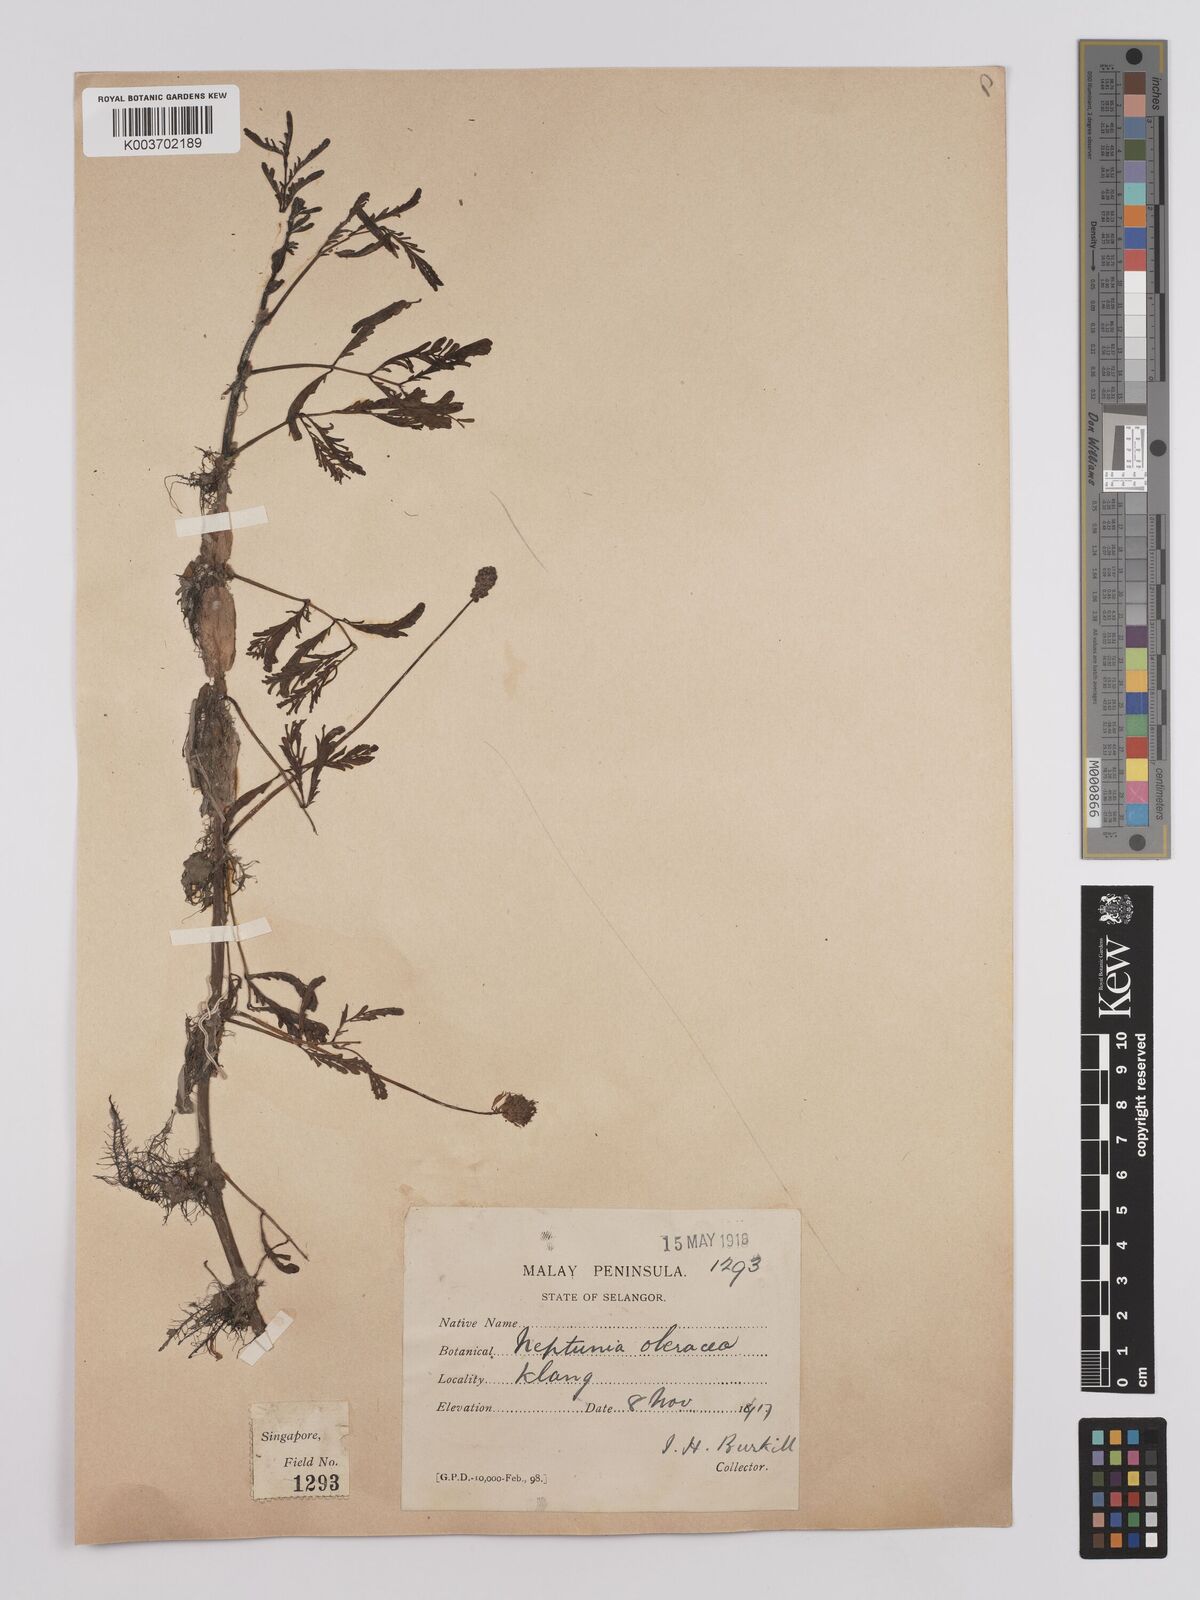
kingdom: Plantae
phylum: Tracheophyta
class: Magnoliopsida
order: Fabales
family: Fabaceae
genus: Neptunia
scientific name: Neptunia prostrata
